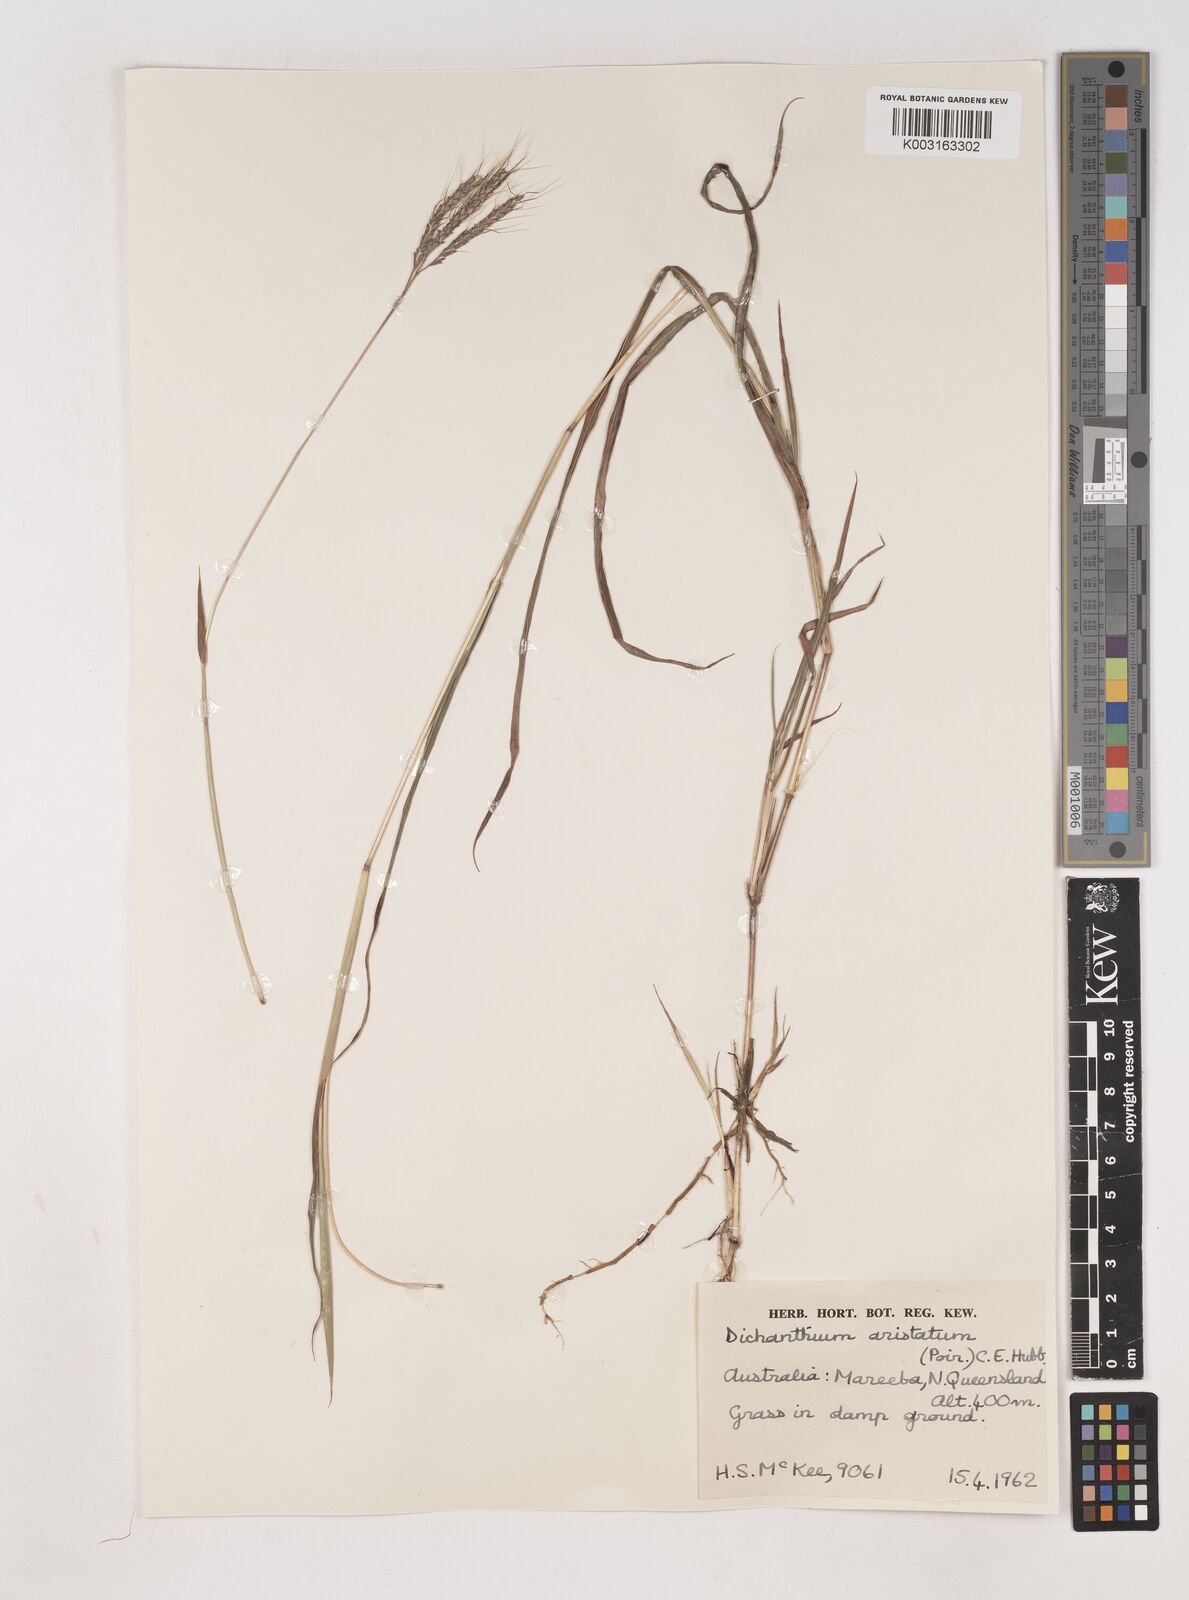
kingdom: Plantae
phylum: Tracheophyta
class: Liliopsida
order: Poales
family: Poaceae
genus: Dichanthium
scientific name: Dichanthium aristatum
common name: Angleton bluestem
